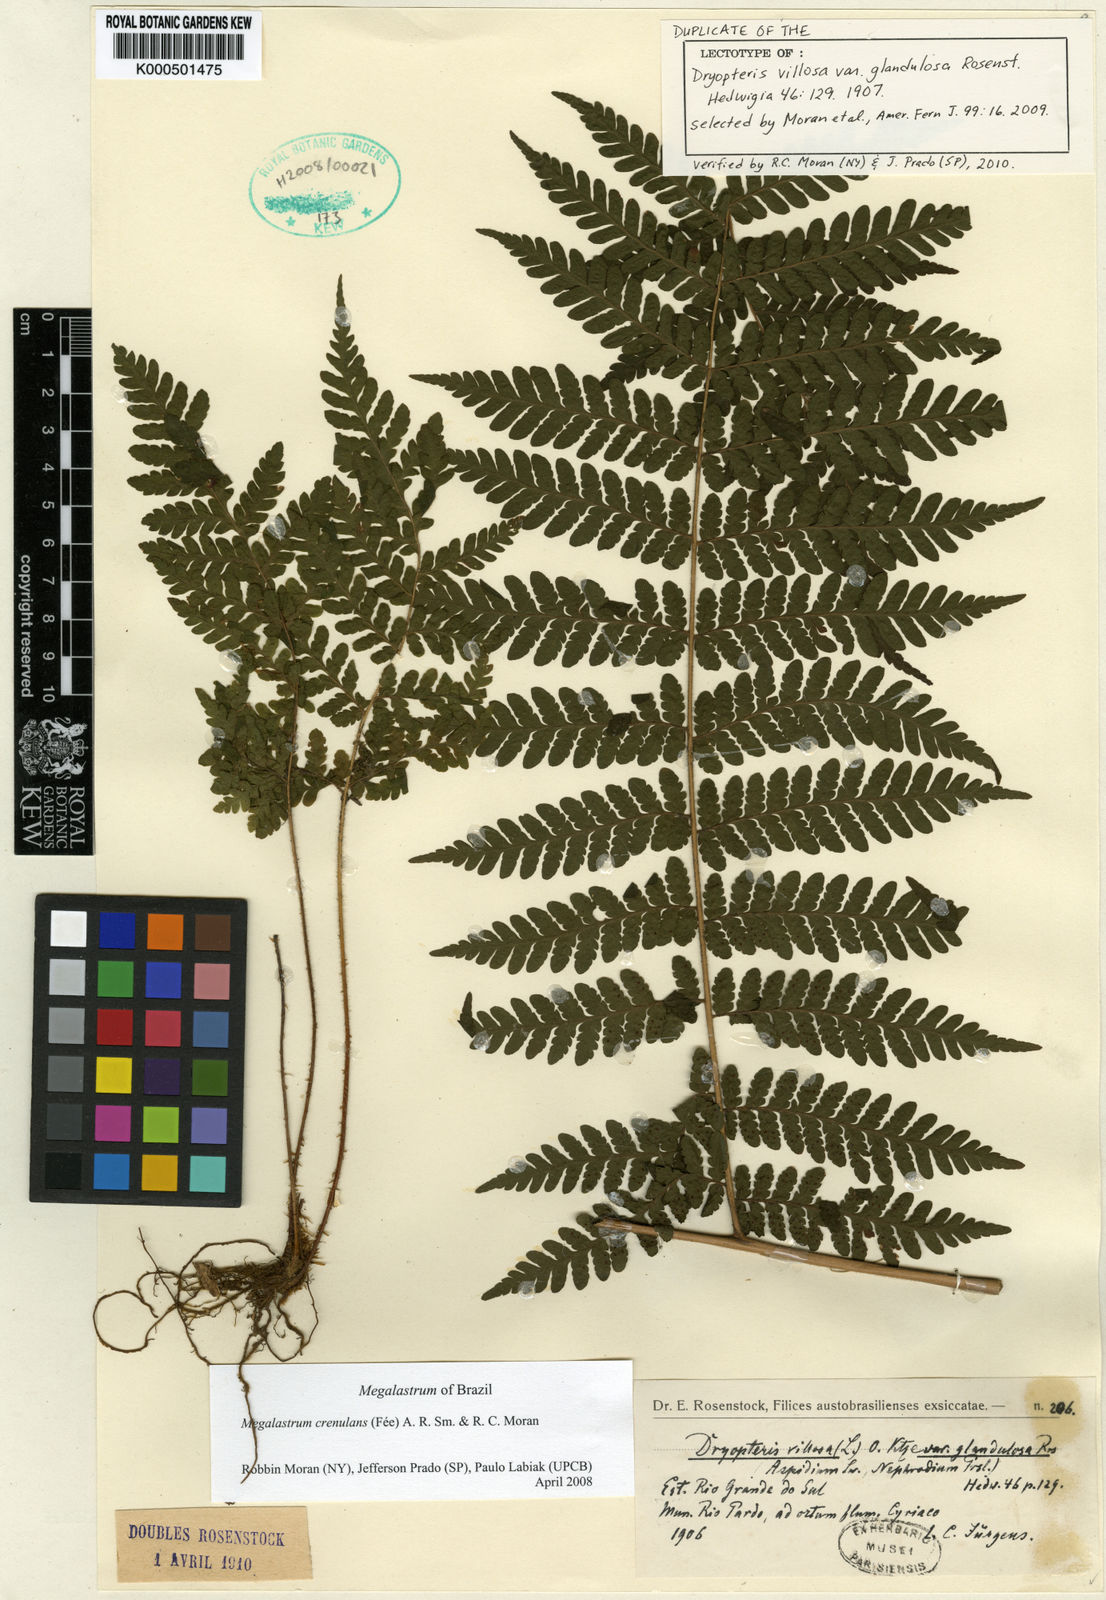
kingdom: Plantae
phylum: Tracheophyta
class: Polypodiopsida
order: Polypodiales
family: Dryopteridaceae
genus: Megalastrum
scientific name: Megalastrum
